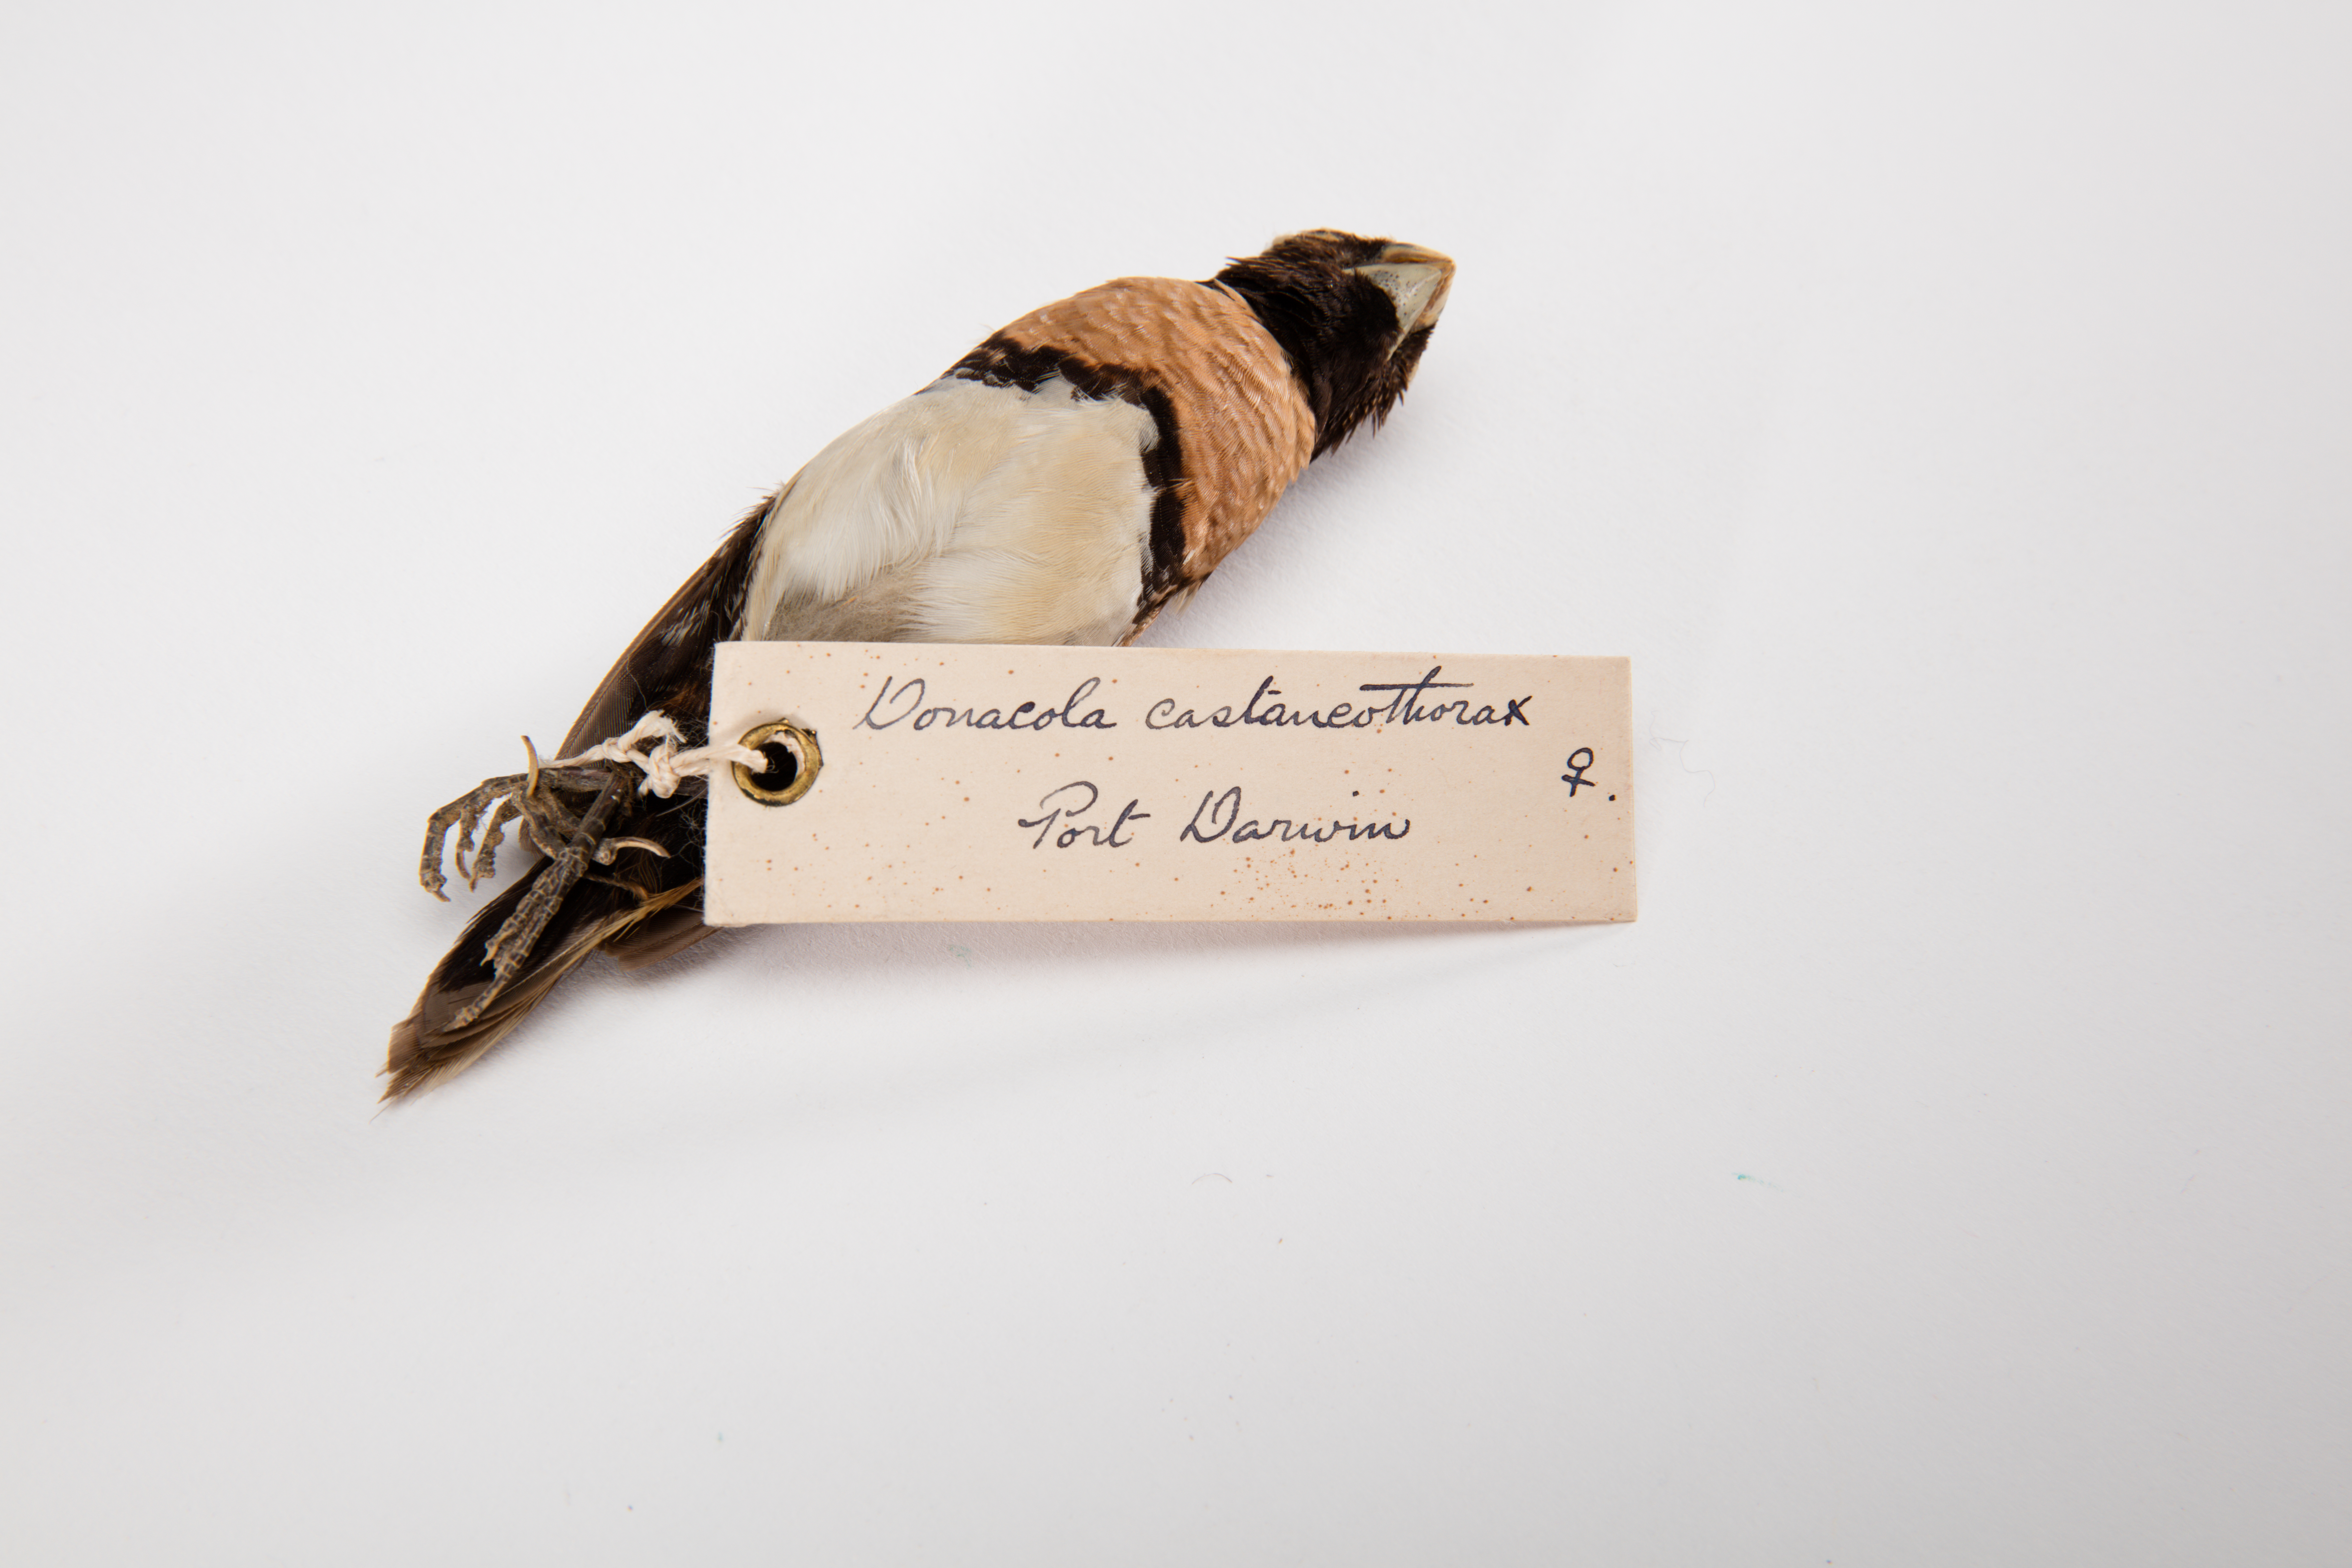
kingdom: Animalia
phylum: Chordata
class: Aves
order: Passeriformes
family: Estrildidae
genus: Lonchura
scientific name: Lonchura castaneothorax
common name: Chestnut-breasted mannikin
